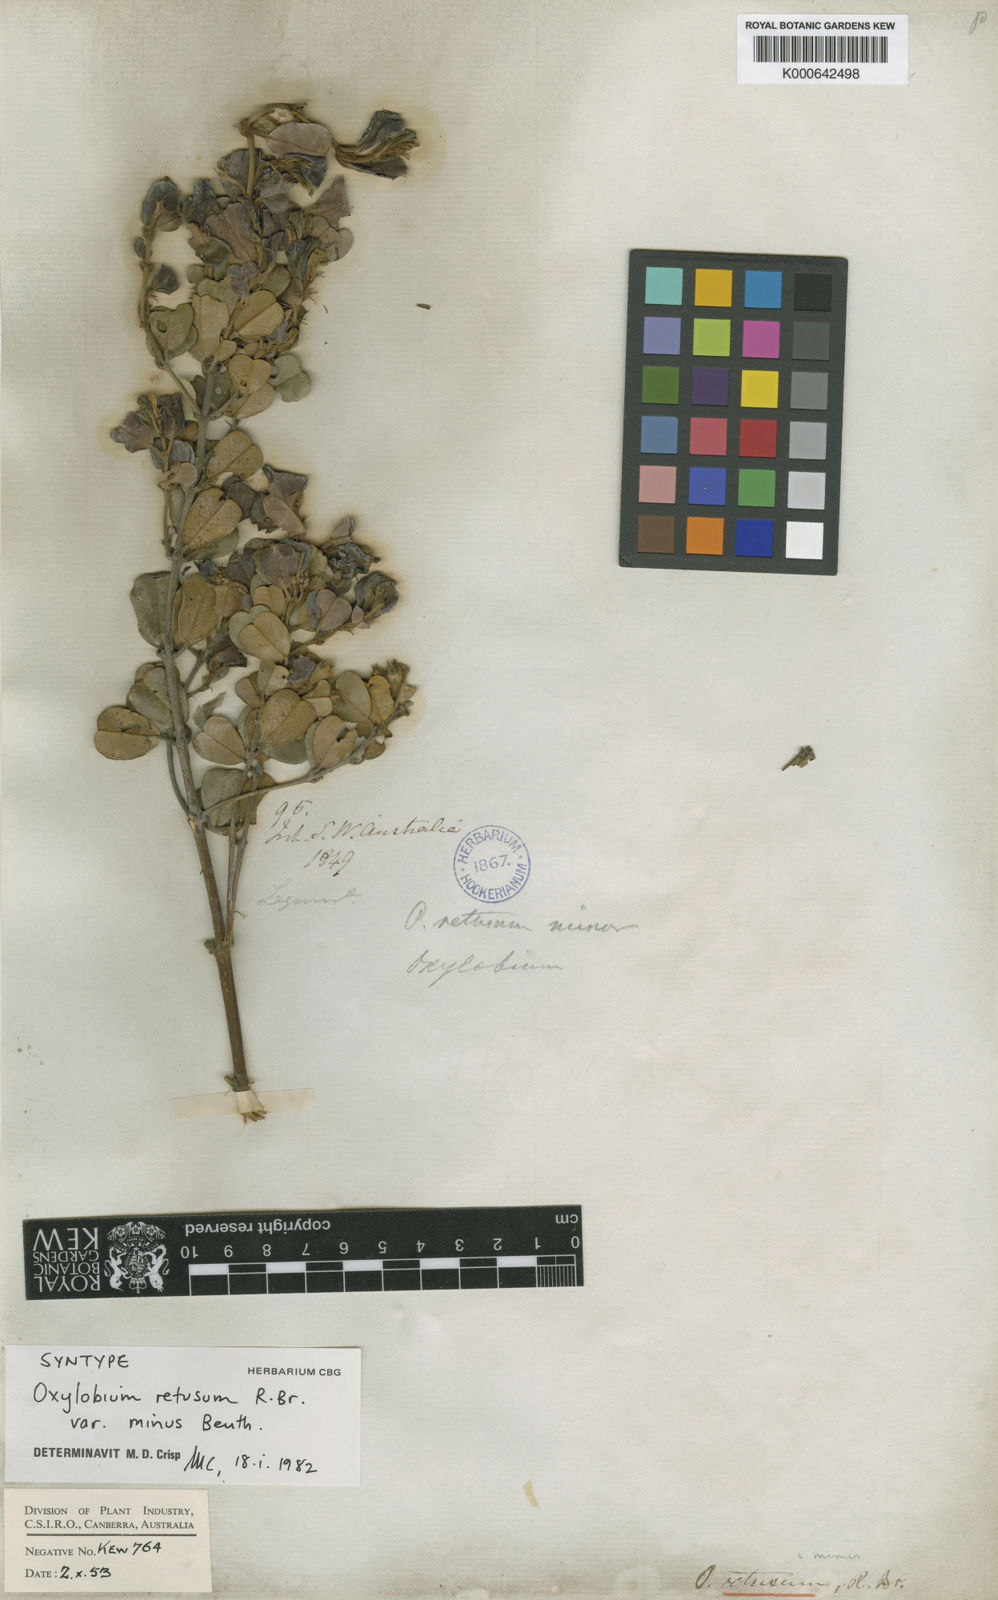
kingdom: Plantae
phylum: Tracheophyta
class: Magnoliopsida
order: Fabales
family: Fabaceae
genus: Gastrolobium
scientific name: Gastrolobium congestum
